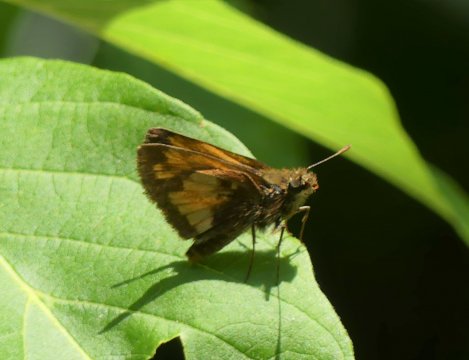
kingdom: Animalia
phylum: Arthropoda
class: Insecta
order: Lepidoptera
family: Hesperiidae
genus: Lon
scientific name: Lon hobomok
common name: Hobomok Skipper
